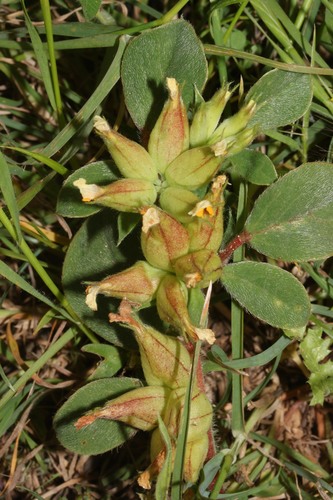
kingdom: Plantae
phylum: Tracheophyta
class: Magnoliopsida
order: Fabales
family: Fabaceae
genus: Tripodion
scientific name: Tripodion tetraphyllum
